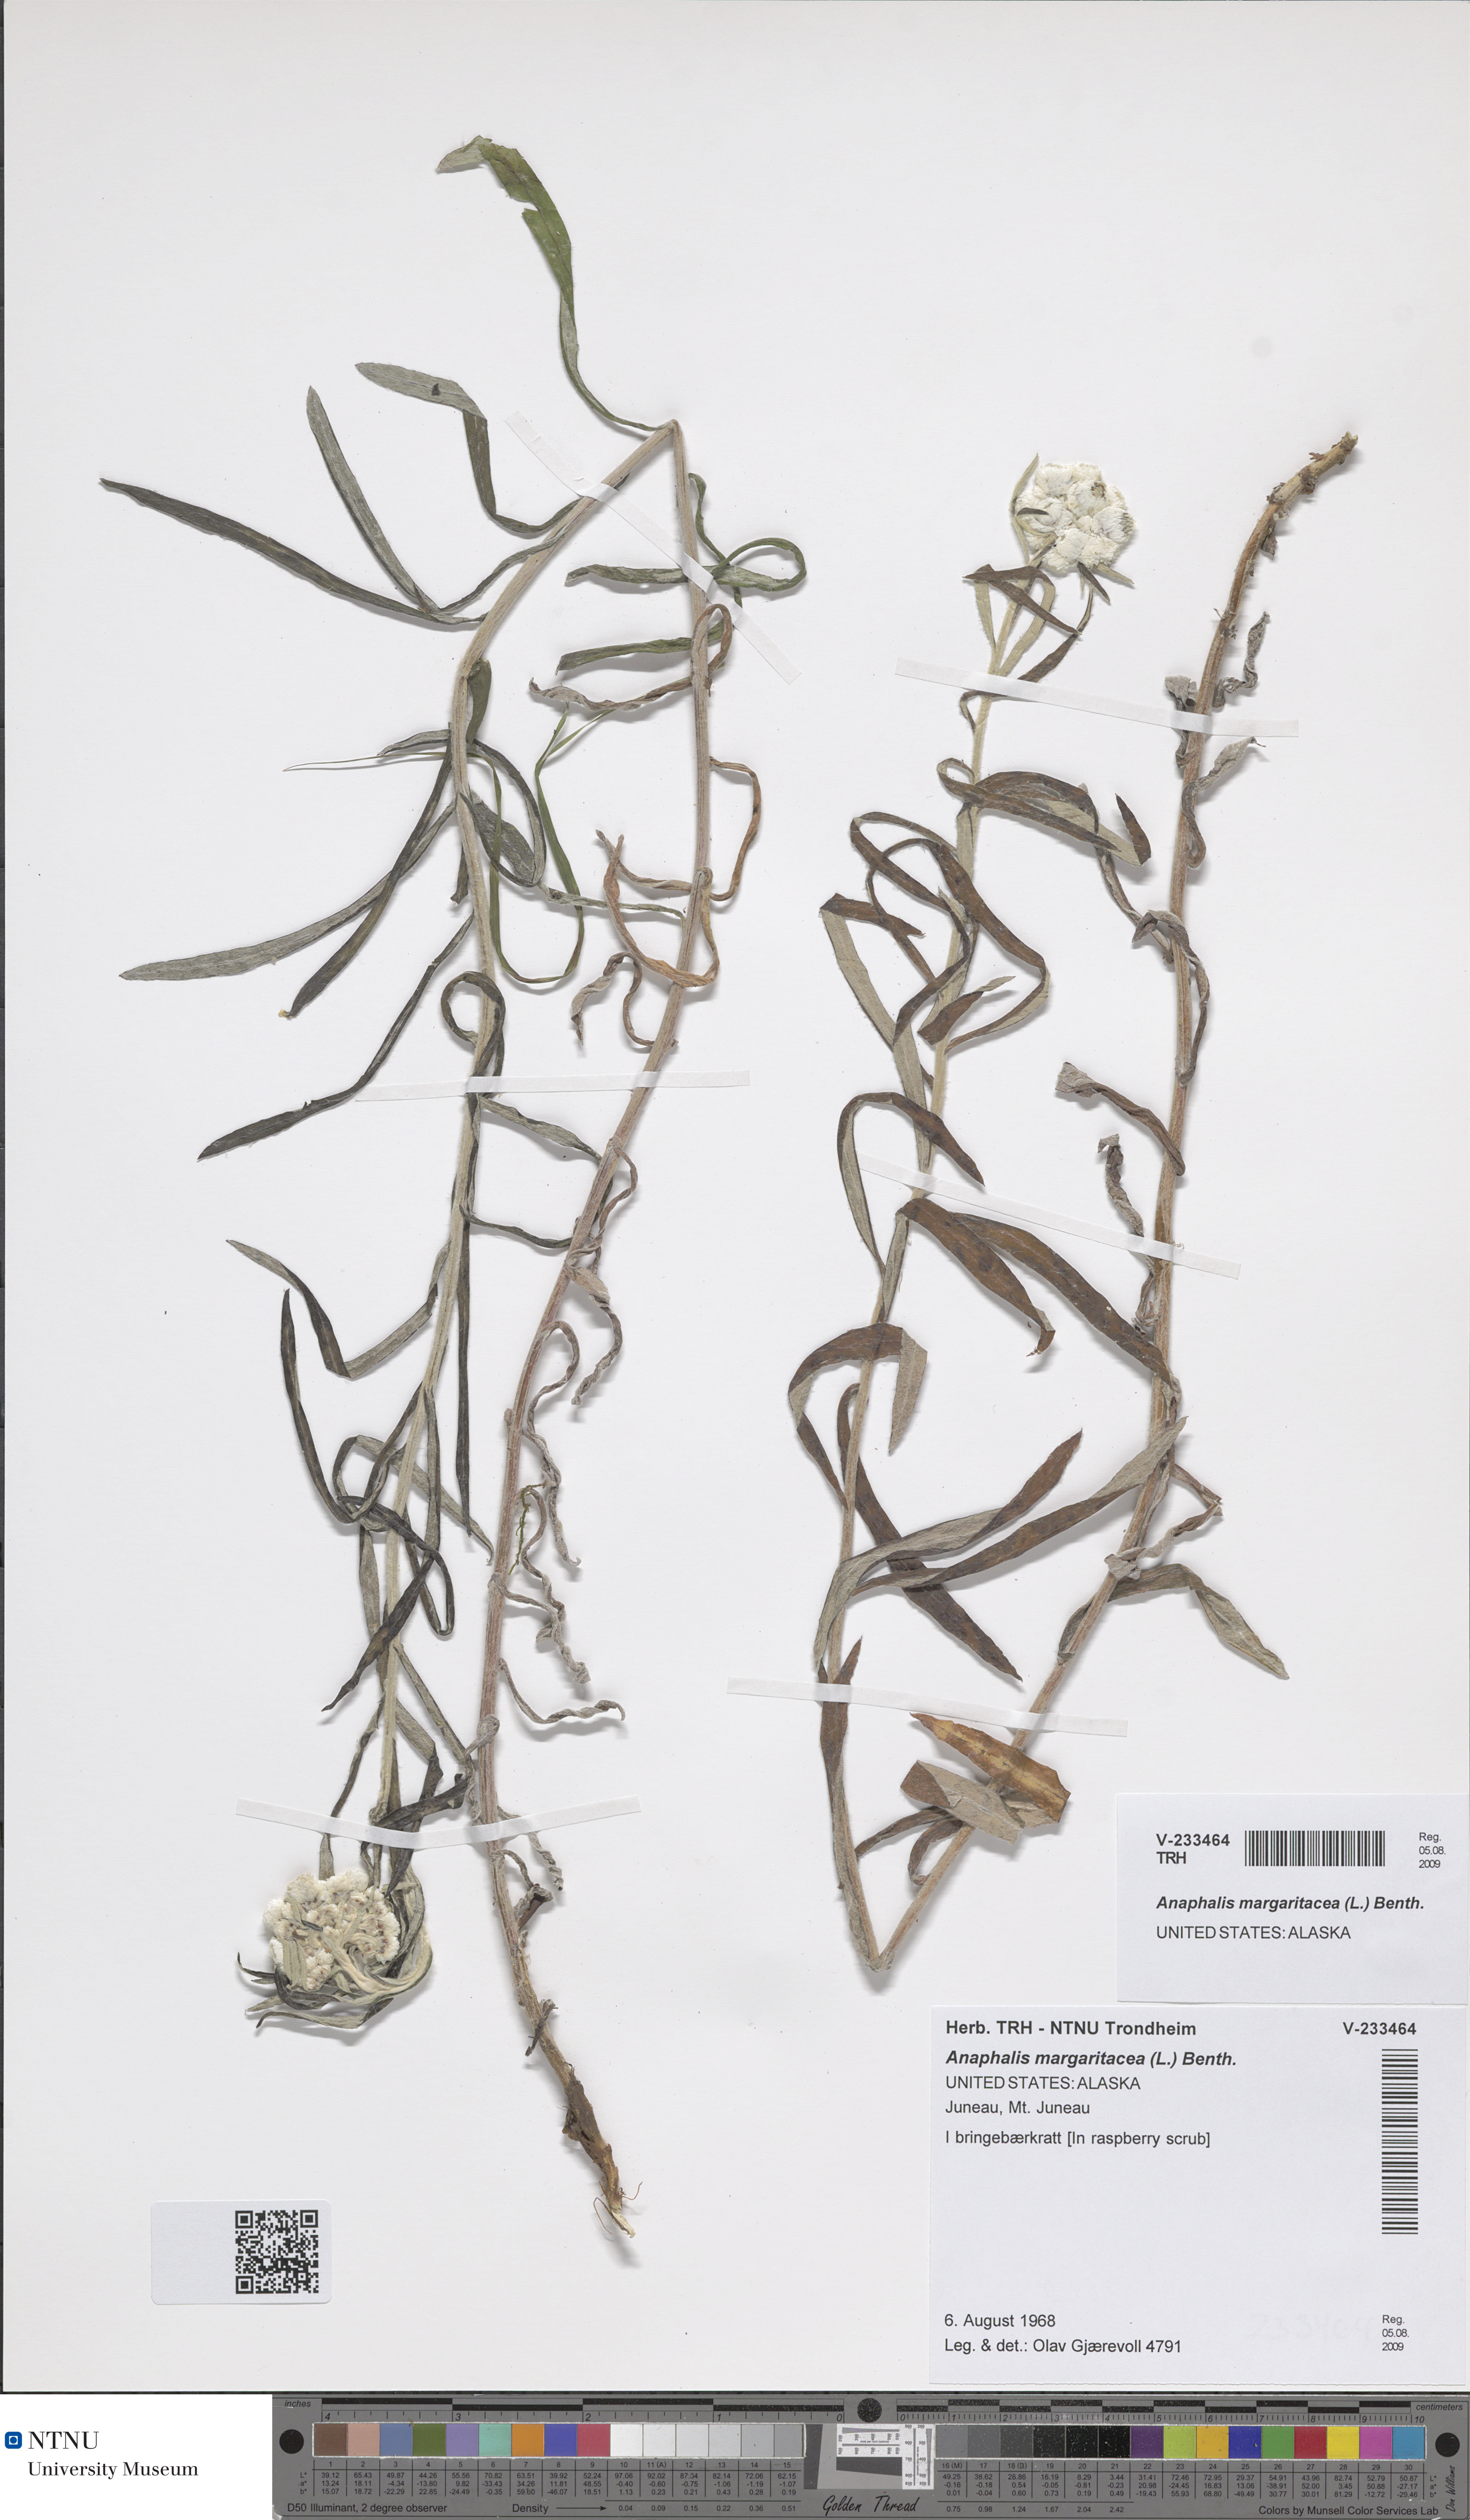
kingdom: Plantae
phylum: Tracheophyta
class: Magnoliopsida
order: Asterales
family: Asteraceae
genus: Anaphalis
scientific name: Anaphalis margaritacea
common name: Pearly everlasting
